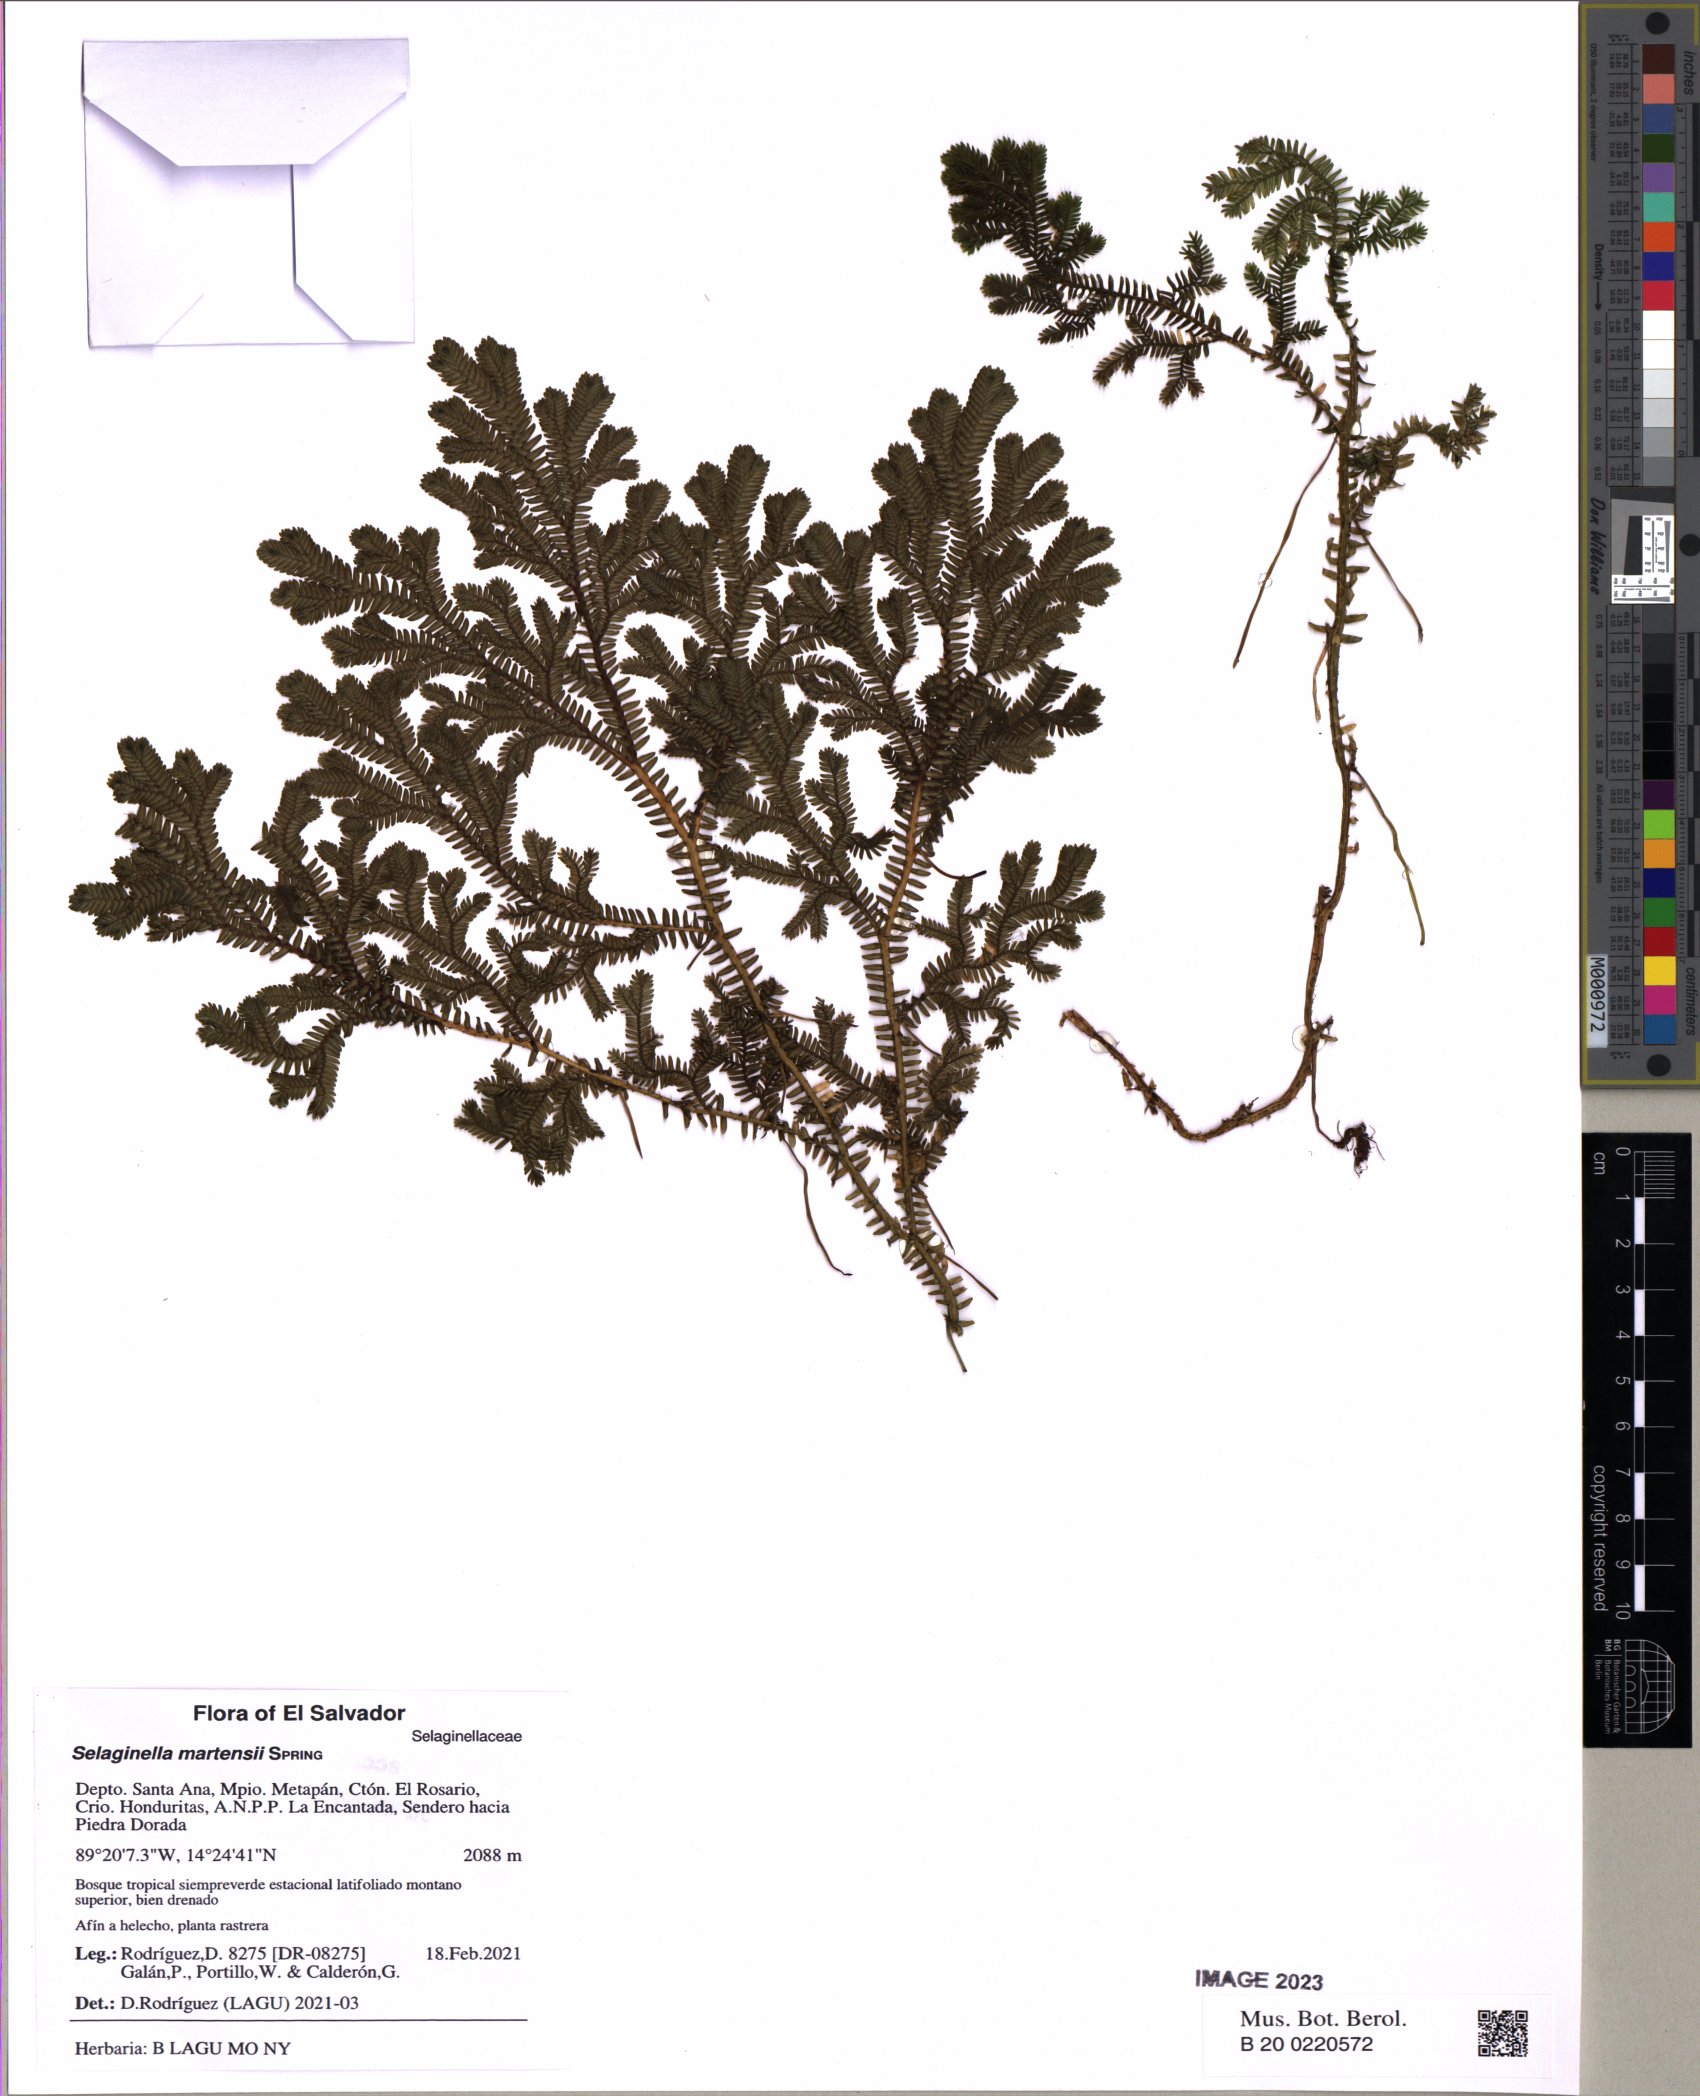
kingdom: Plantae
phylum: Tracheophyta
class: Lycopodiopsida
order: Selaginellales
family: Selaginellaceae
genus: Selaginella
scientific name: Selaginella martensii
